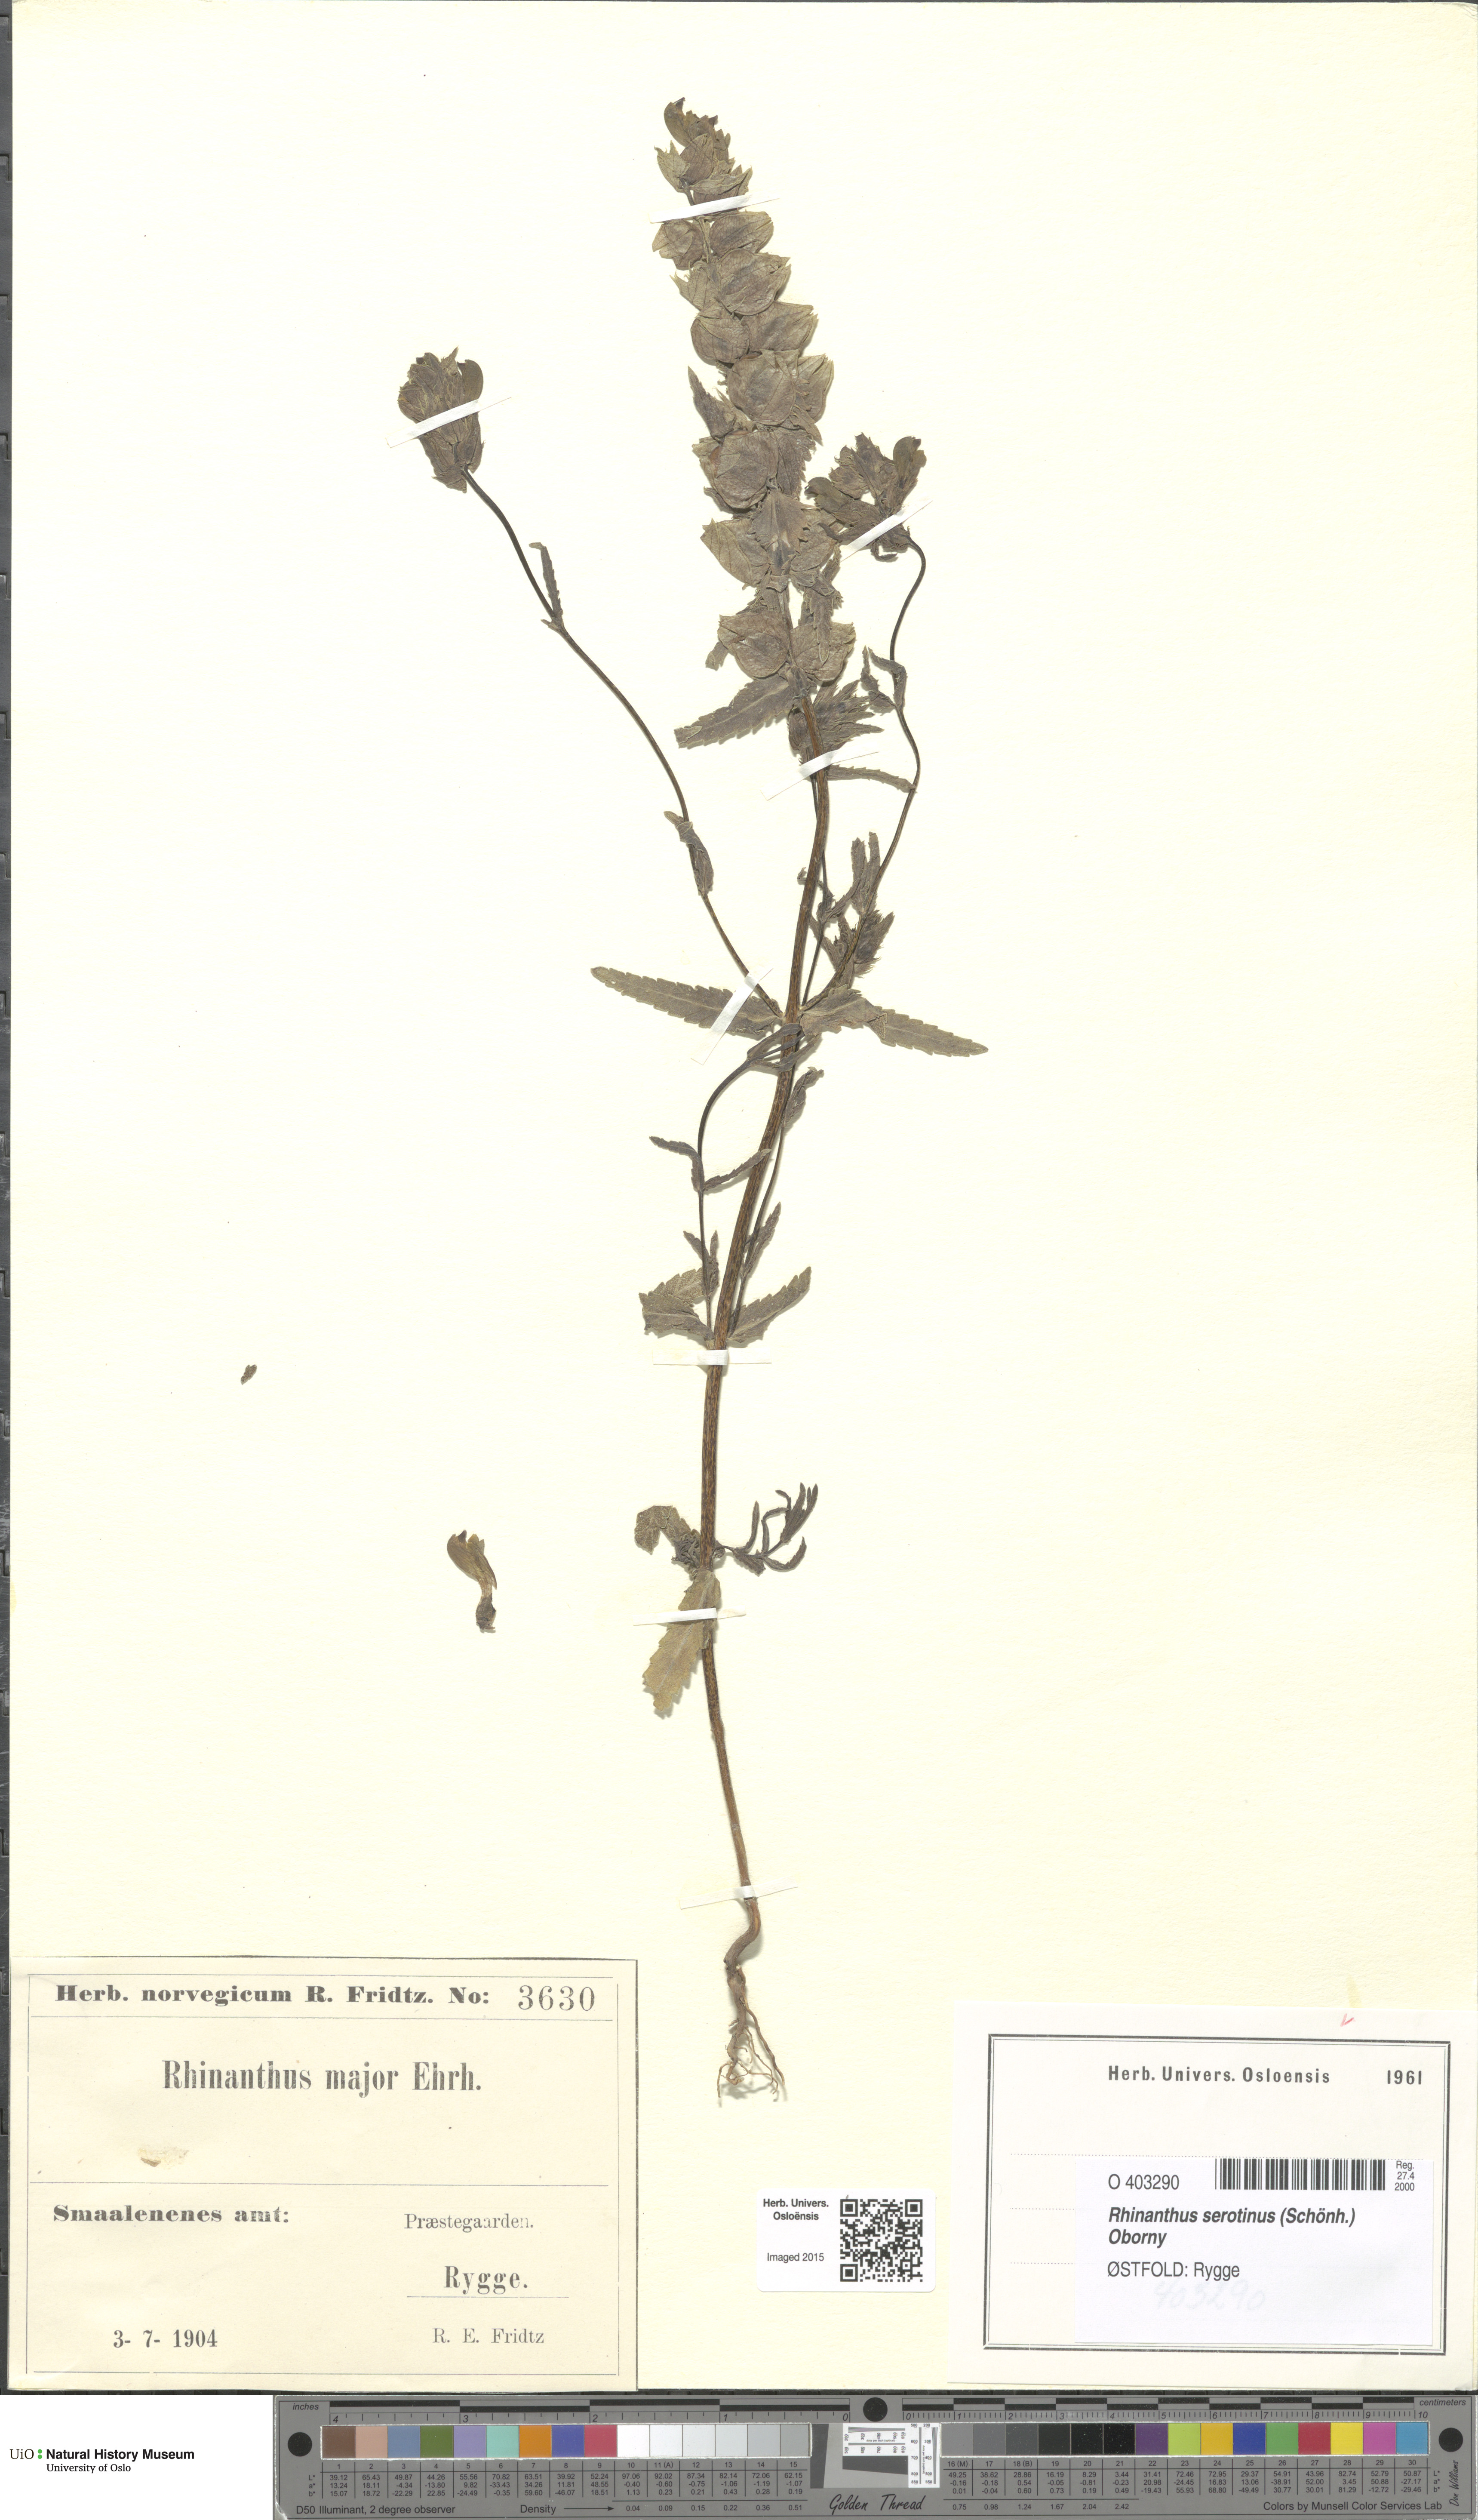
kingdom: Plantae
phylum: Tracheophyta
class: Magnoliopsida
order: Lamiales
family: Orobanchaceae
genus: Rhinanthus
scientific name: Rhinanthus serotinus
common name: Late-flowering yellow rattle
